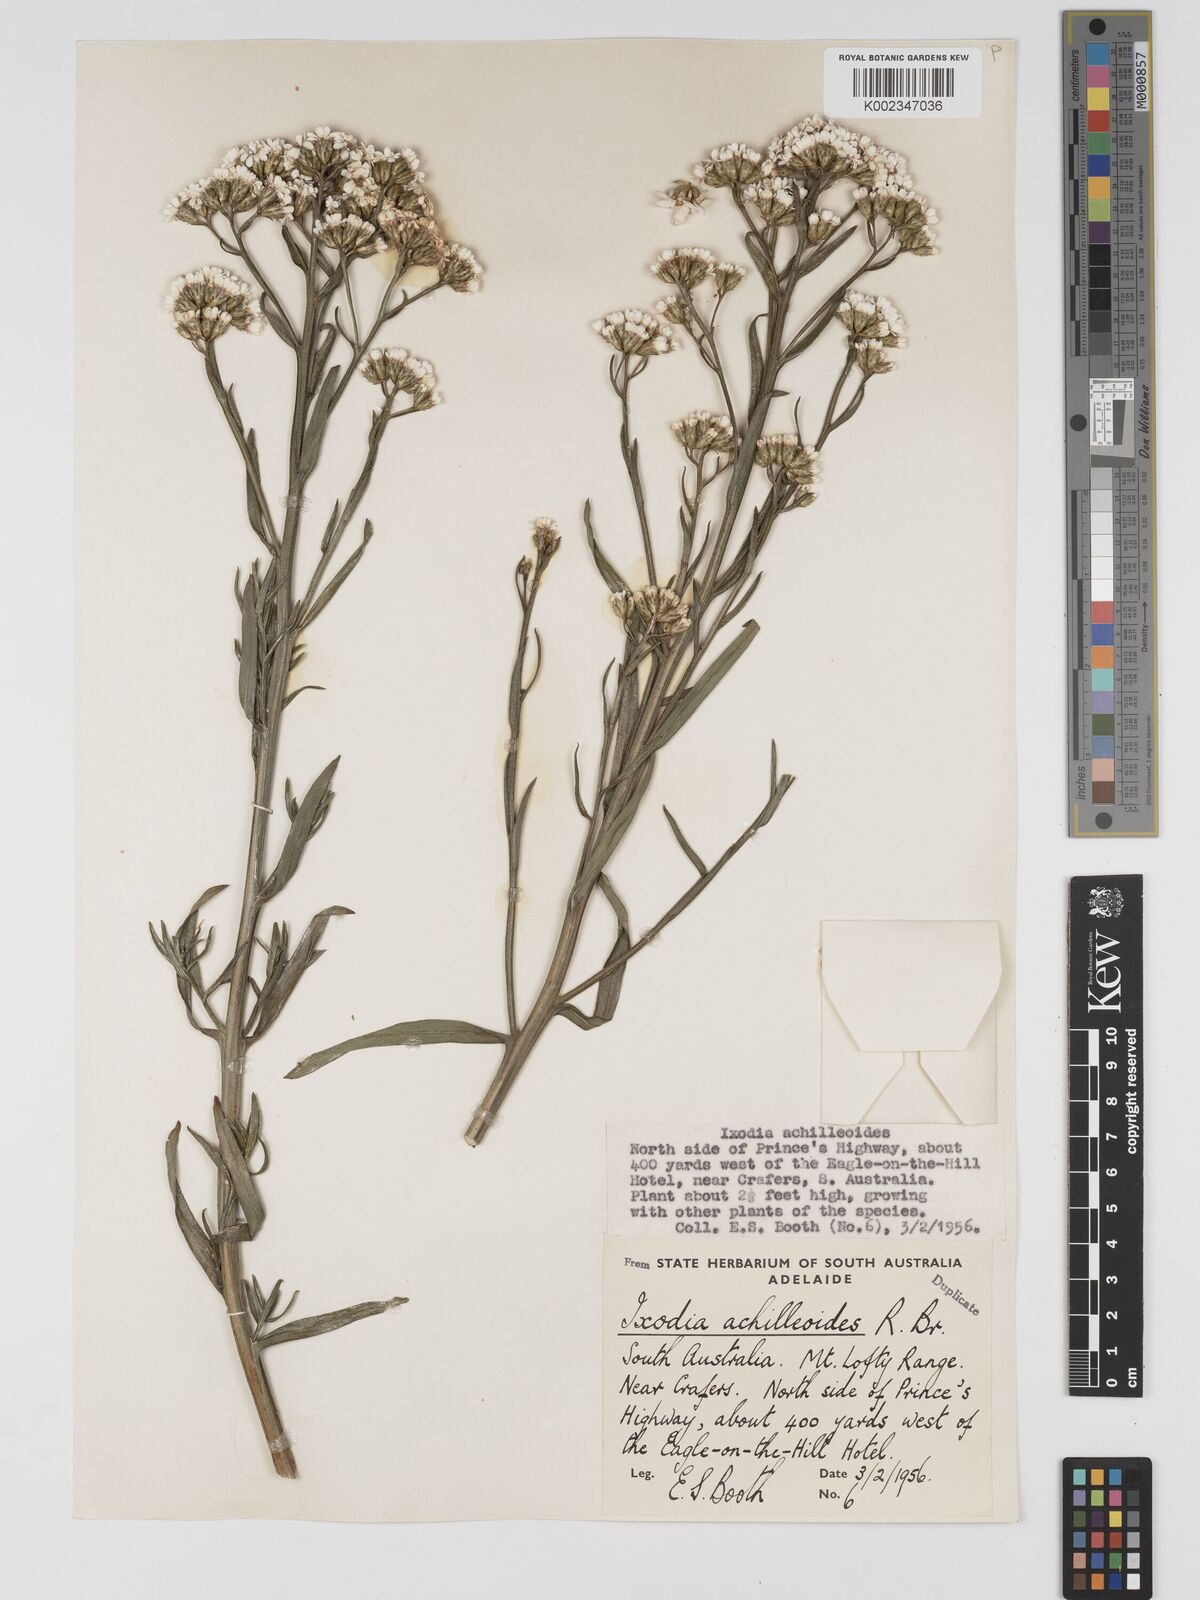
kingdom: Plantae
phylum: Tracheophyta
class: Magnoliopsida
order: Asterales
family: Asteraceae
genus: Ixodia
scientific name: Ixodia achilleoides
